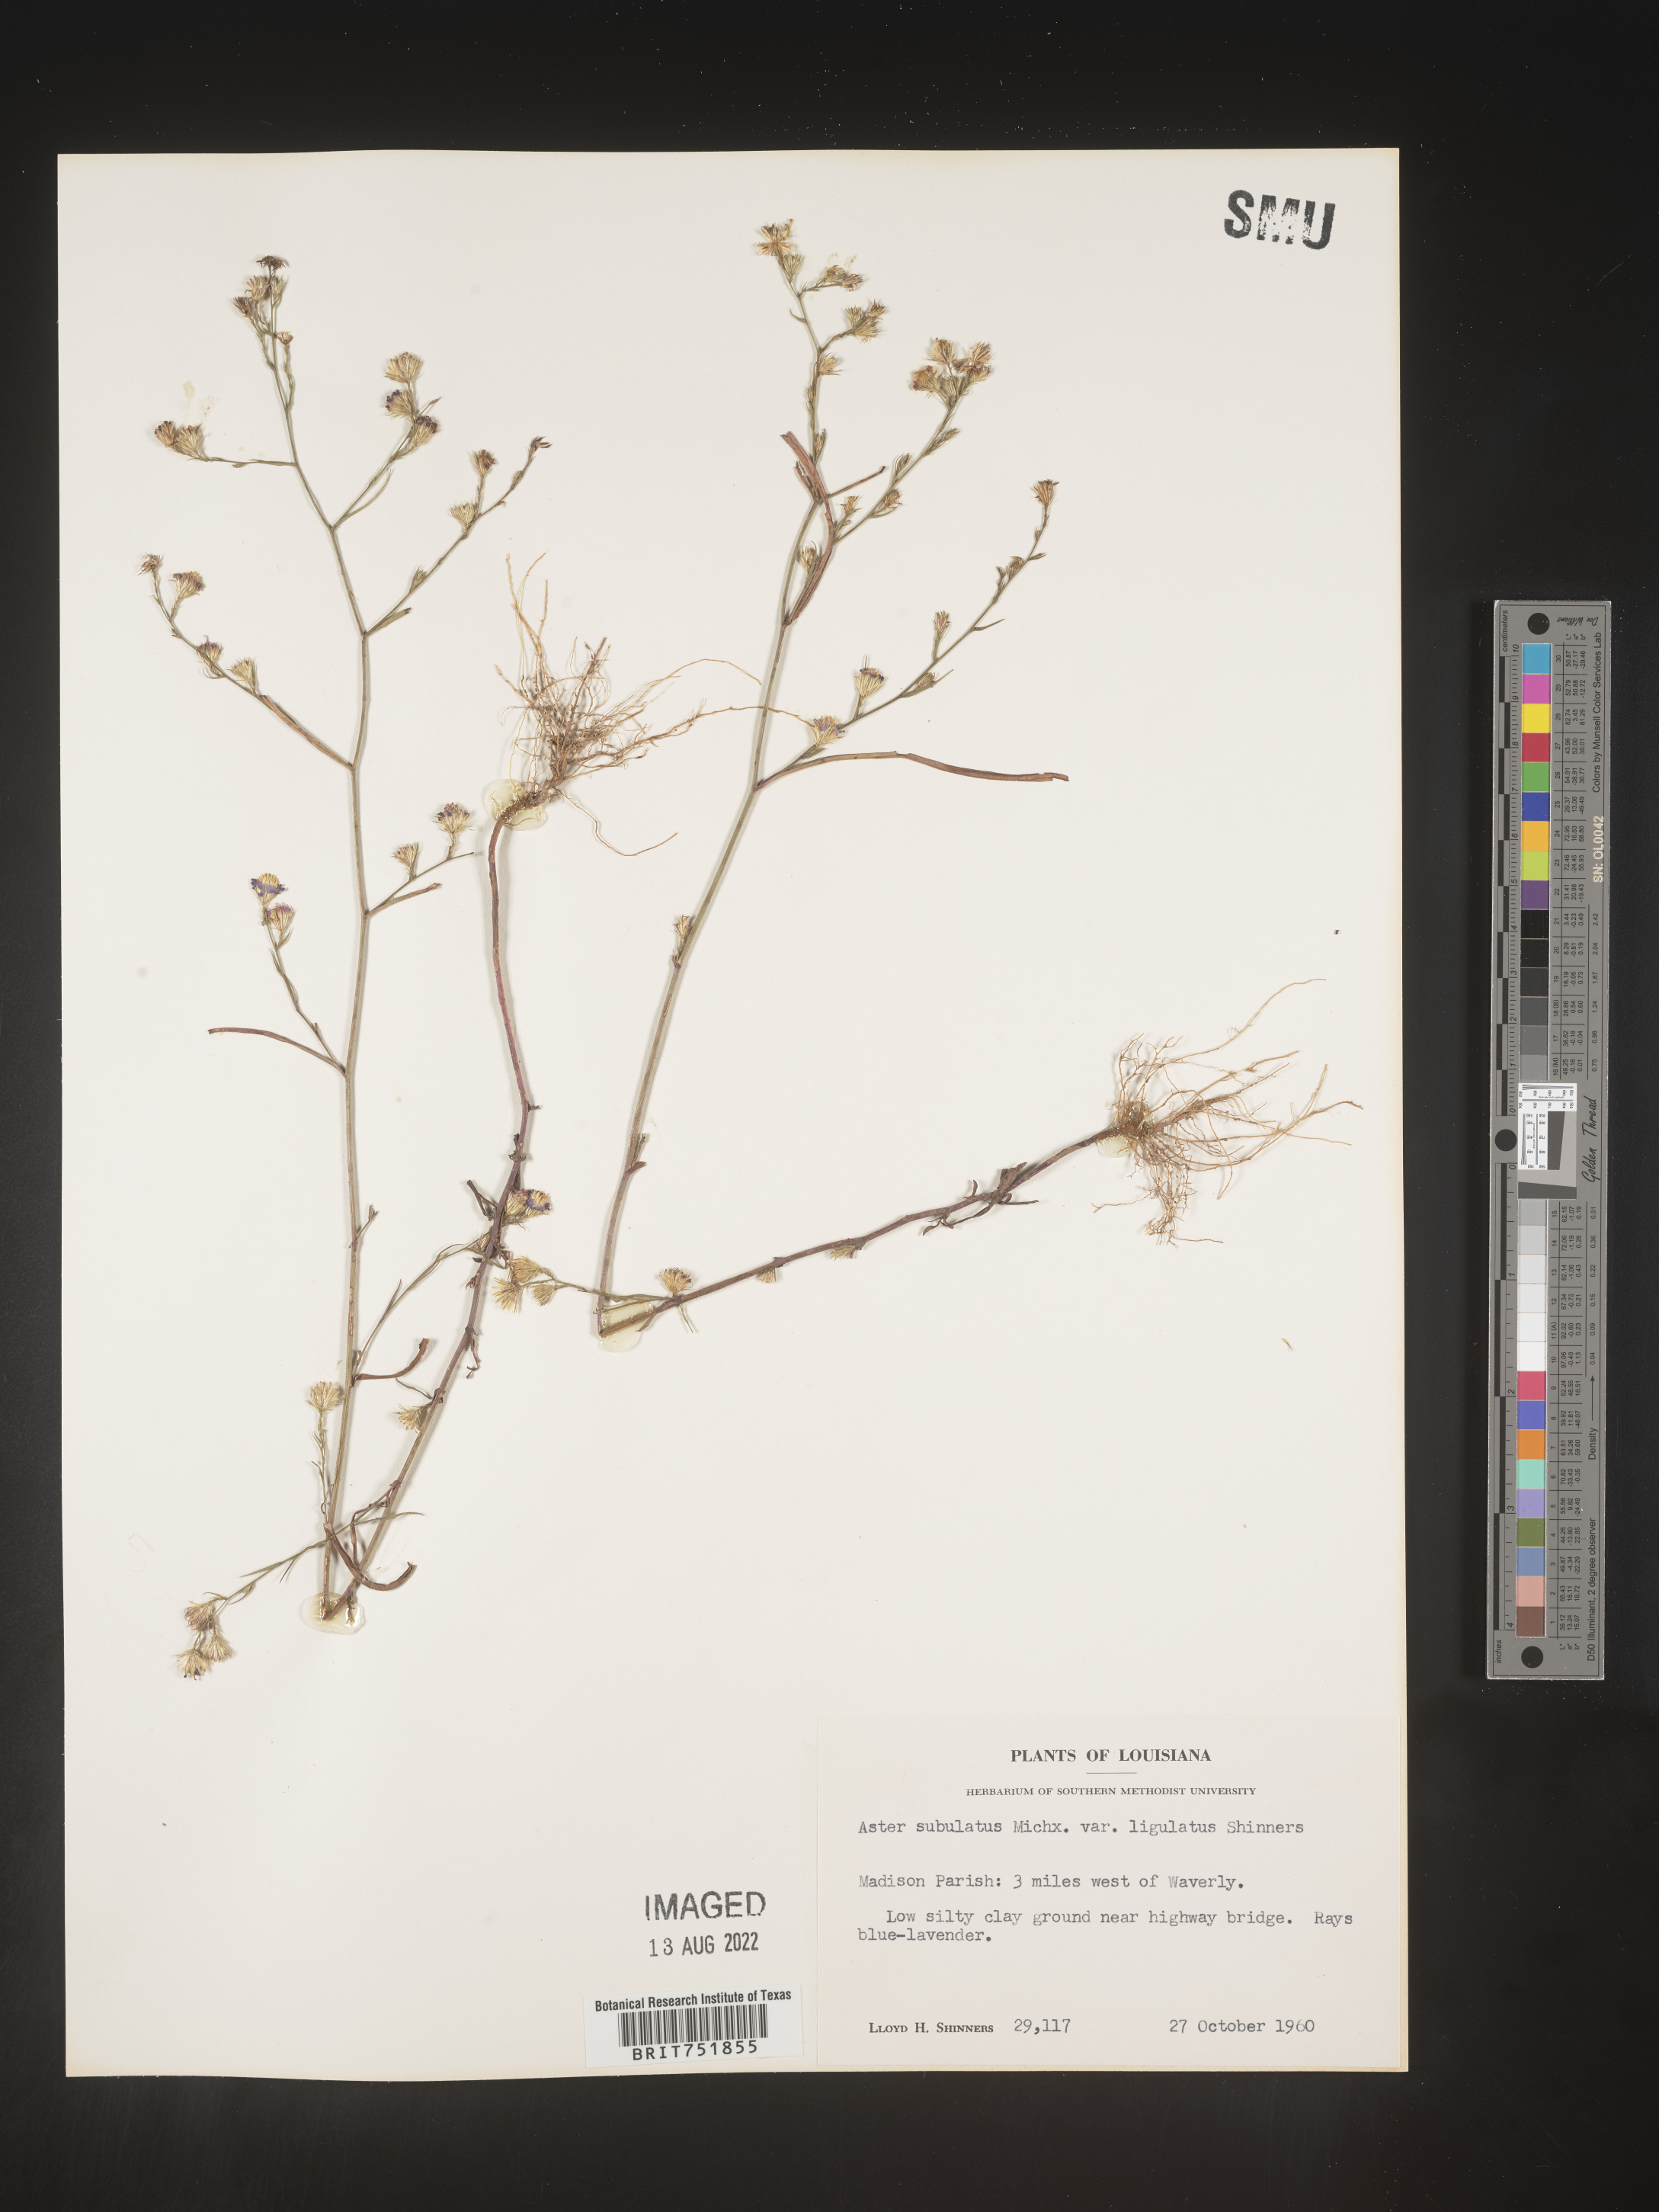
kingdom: Plantae
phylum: Tracheophyta
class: Magnoliopsida
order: Asterales
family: Asteraceae
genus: Symphyotrichum
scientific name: Symphyotrichum divaricatum
